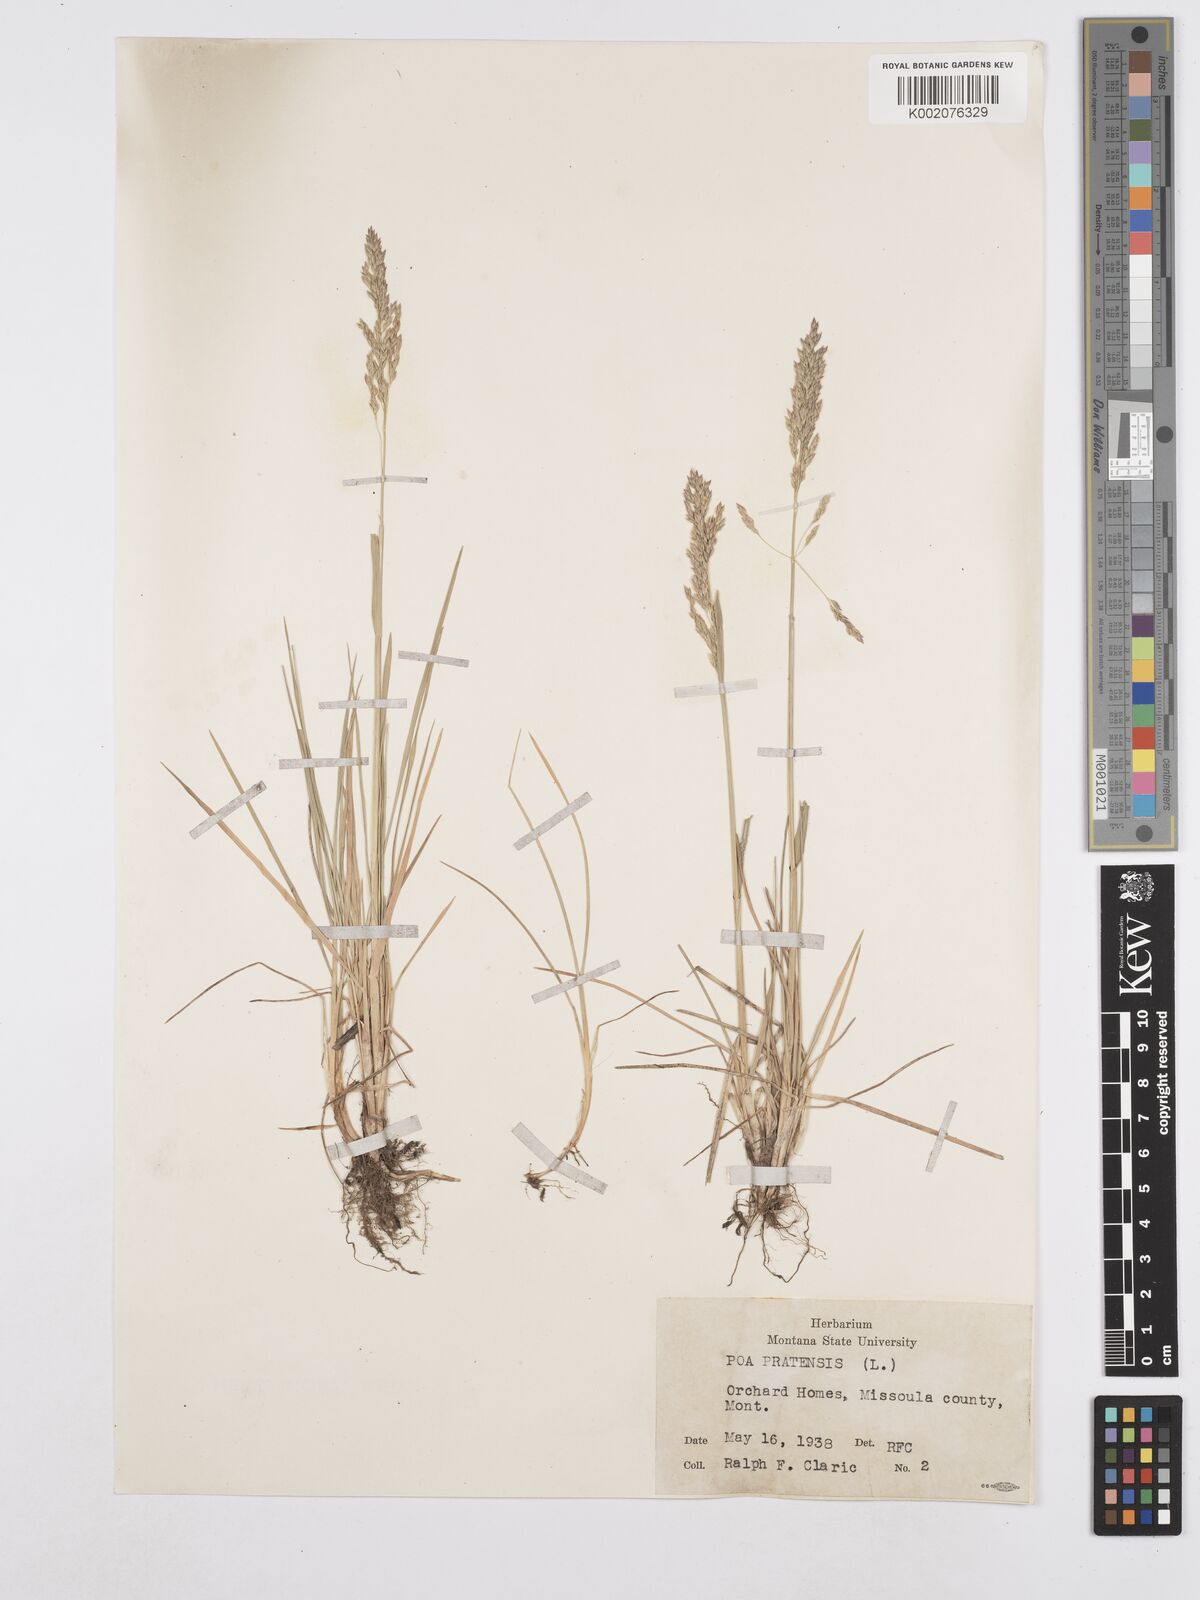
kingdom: Plantae
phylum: Tracheophyta
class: Liliopsida
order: Poales
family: Poaceae
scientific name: Poaceae
